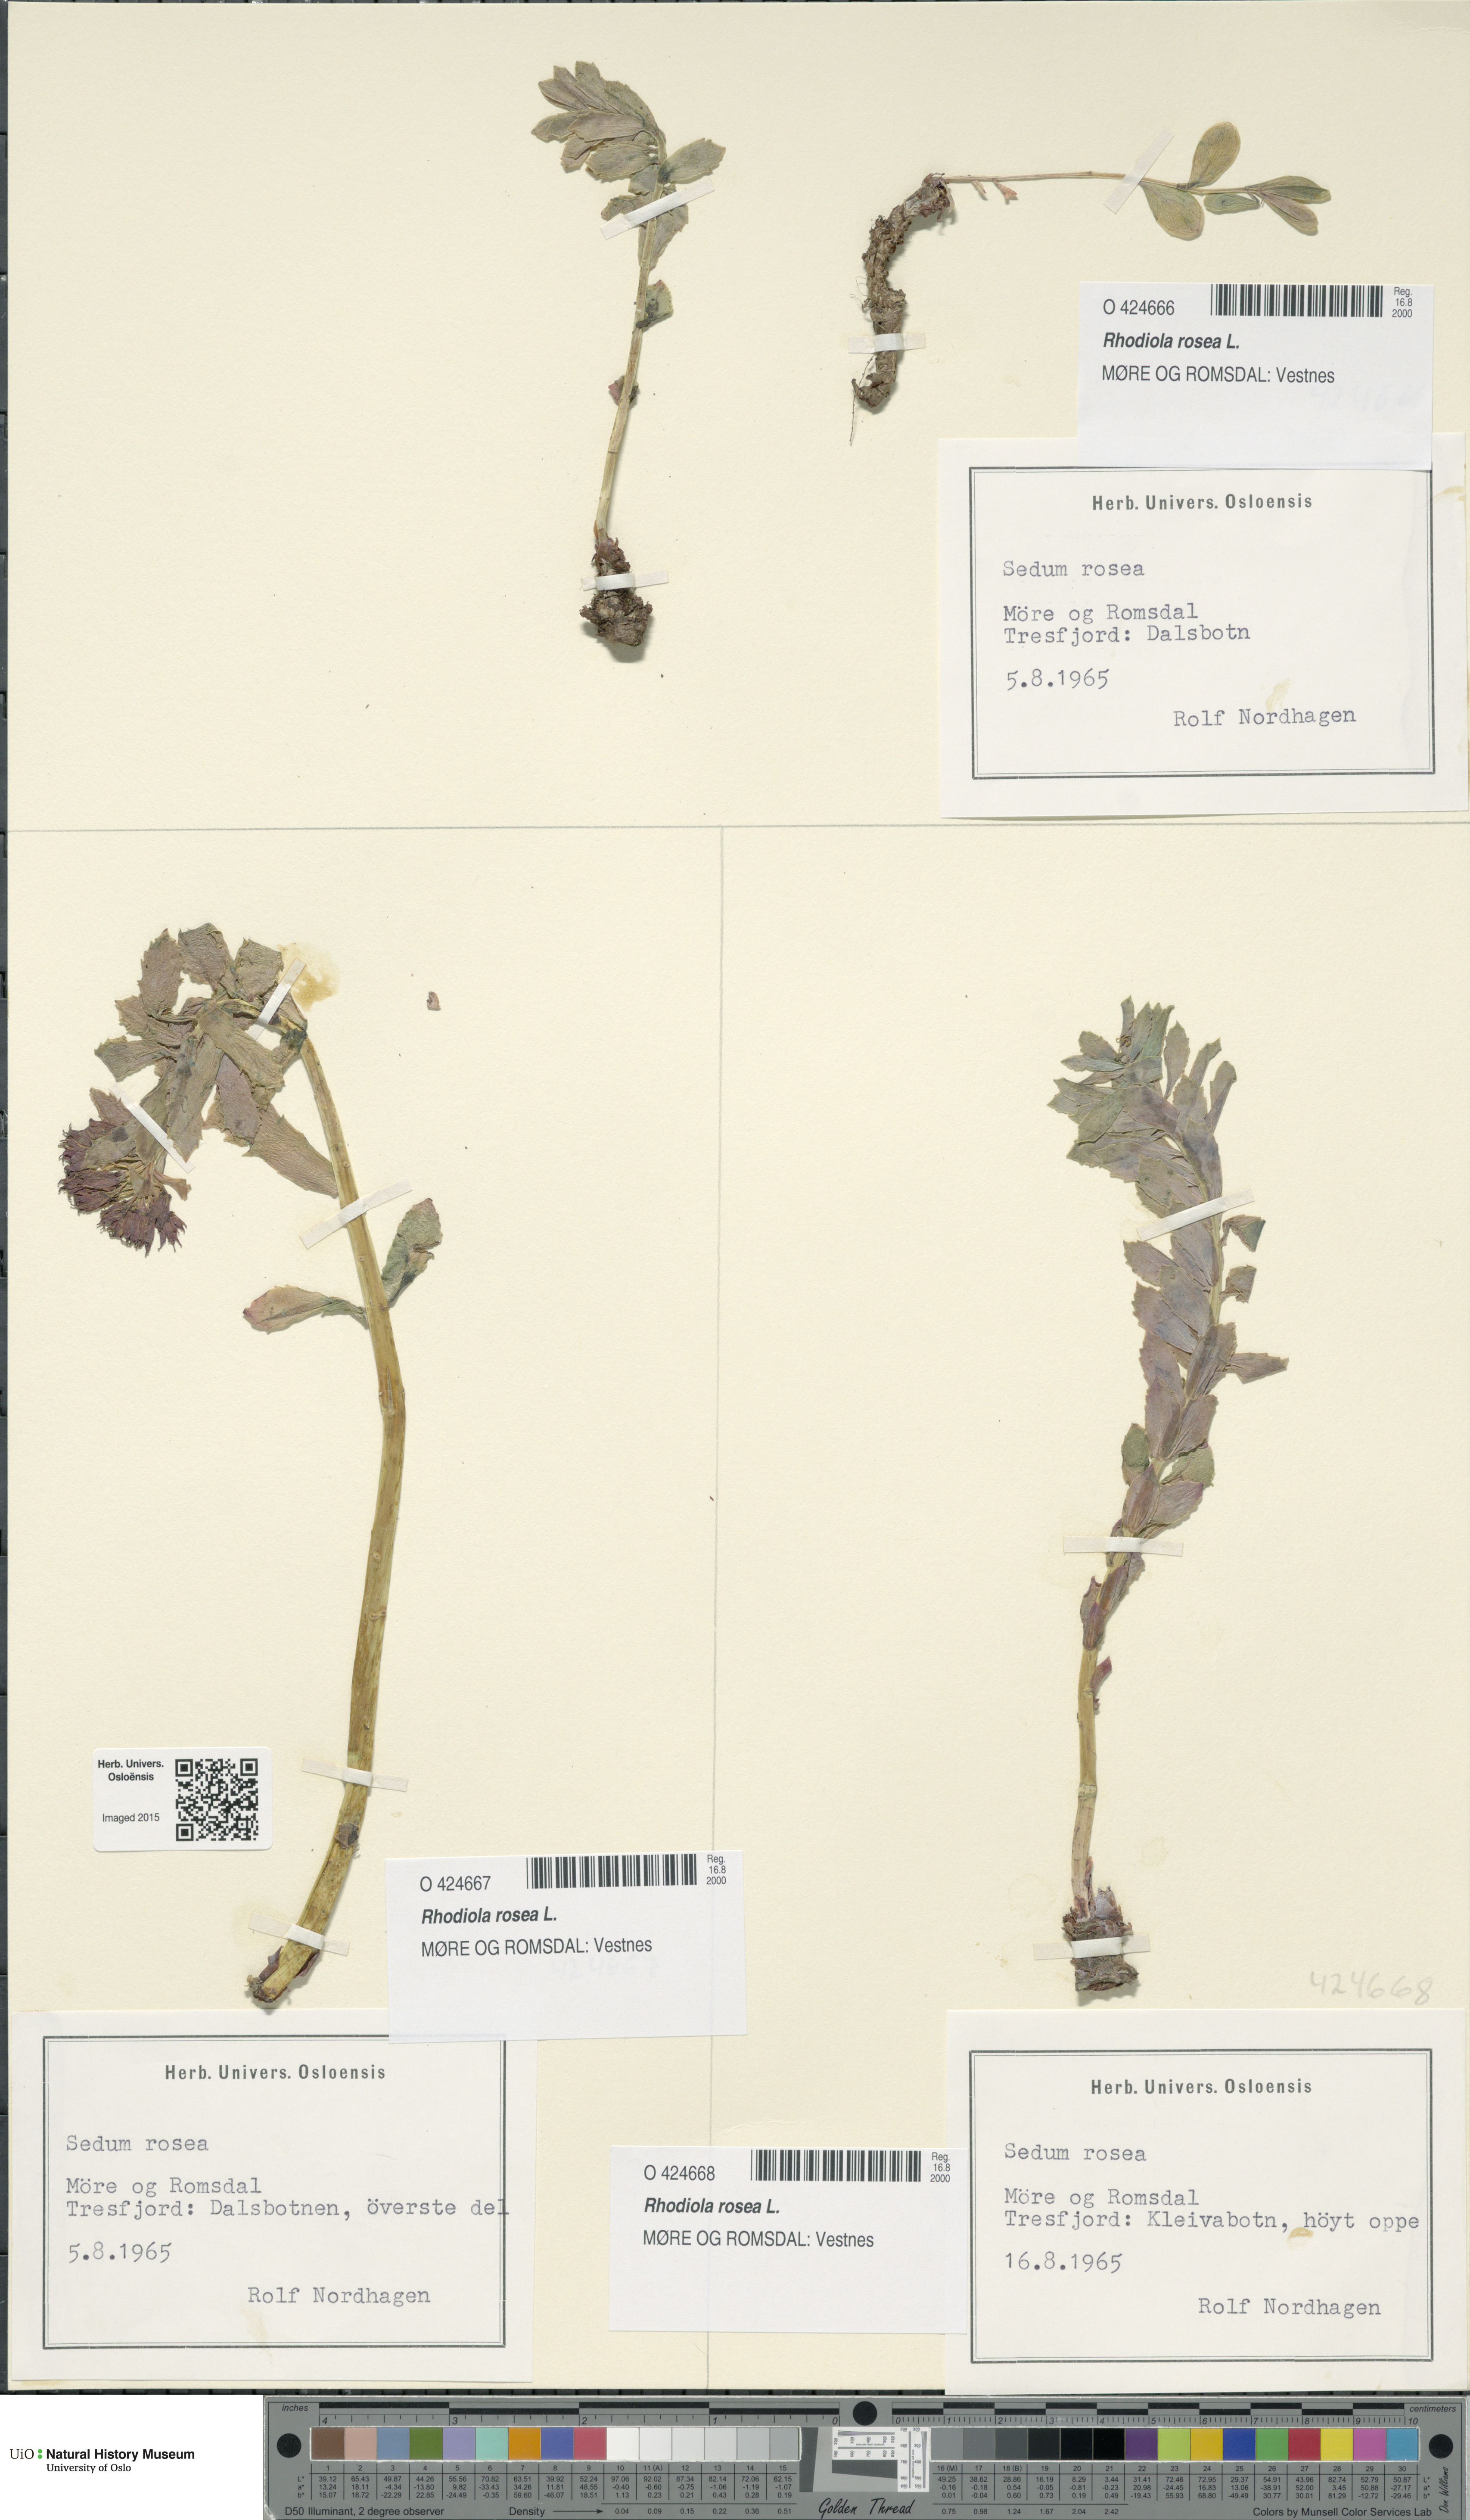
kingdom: Plantae
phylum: Tracheophyta
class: Magnoliopsida
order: Saxifragales
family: Crassulaceae
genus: Rhodiola
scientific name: Rhodiola rosea
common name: Roseroot
